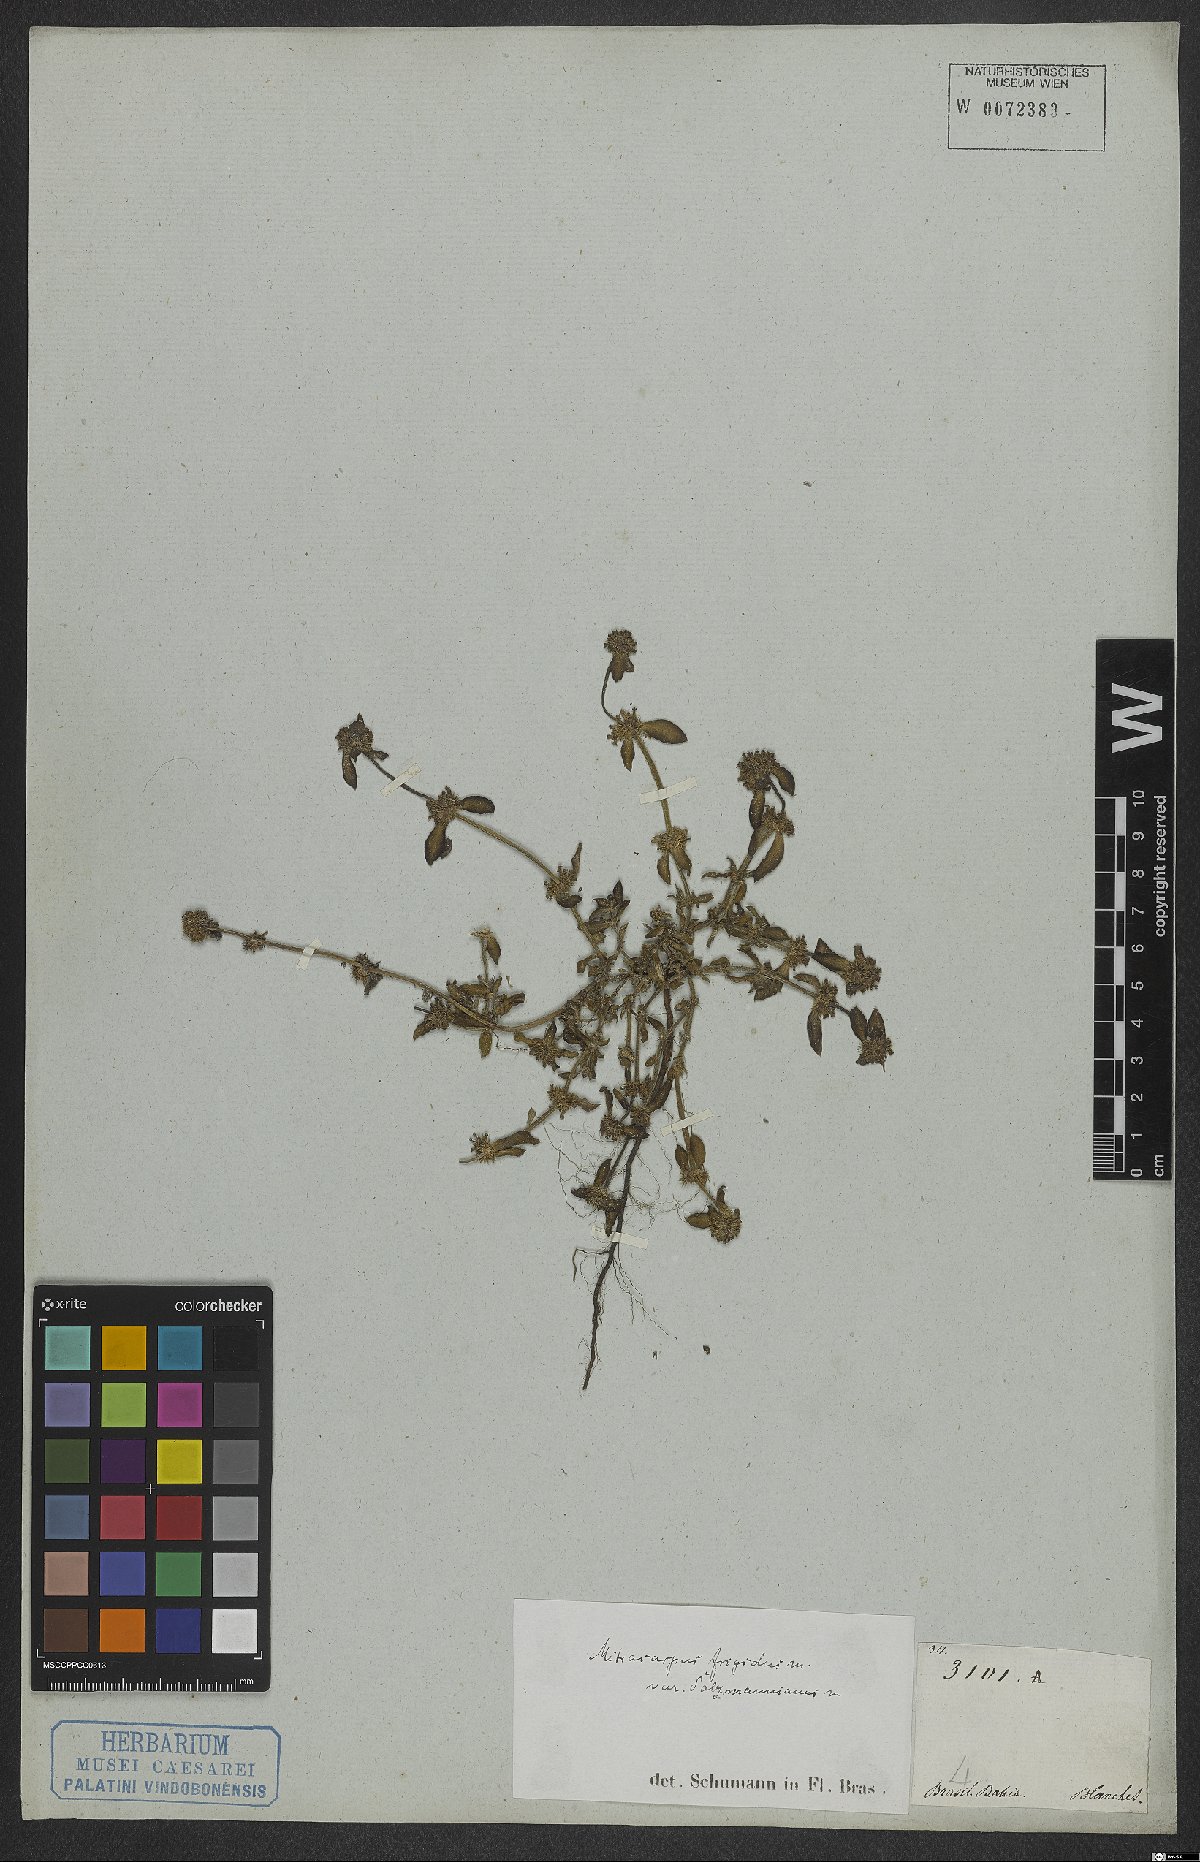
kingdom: Plantae
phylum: Tracheophyta
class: Magnoliopsida
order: Gentianales
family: Rubiaceae
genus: Mitracarpus
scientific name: Mitracarpus frigidus
